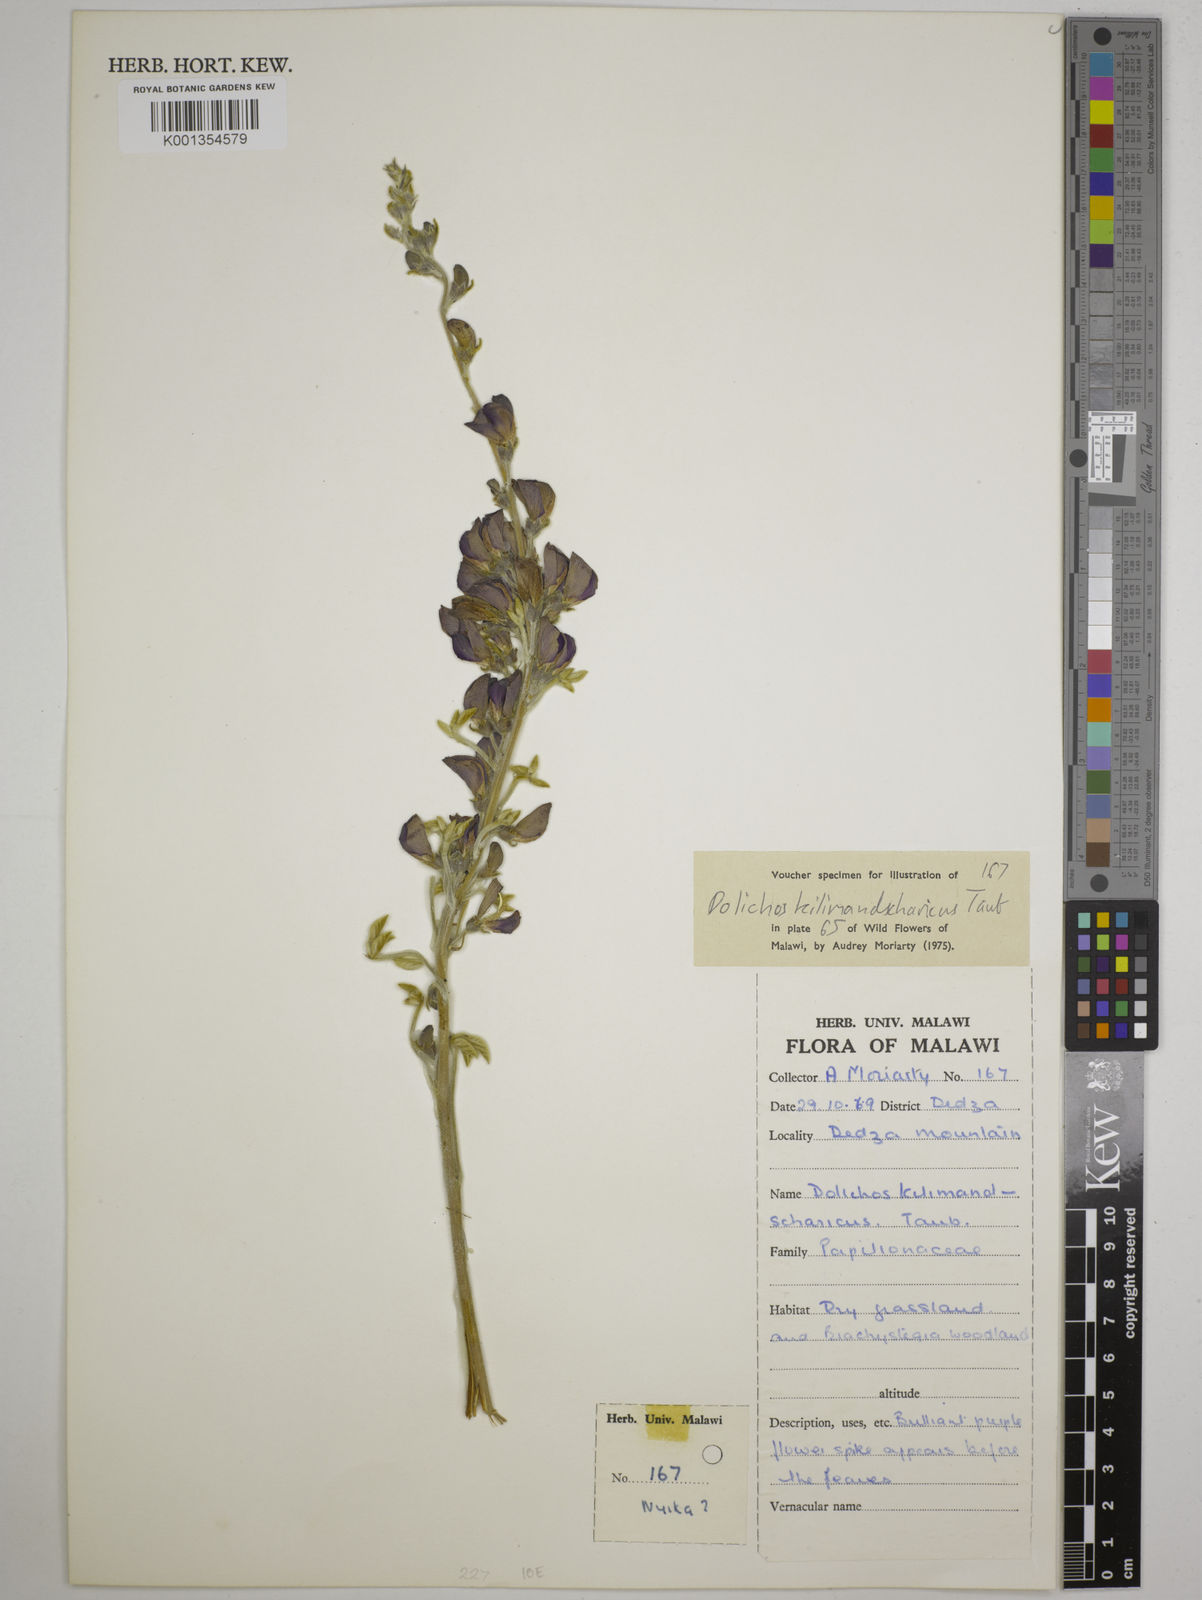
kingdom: Plantae
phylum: Tracheophyta
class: Magnoliopsida
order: Fabales
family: Fabaceae
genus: Dolichos
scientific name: Dolichos kilimandscharicus
